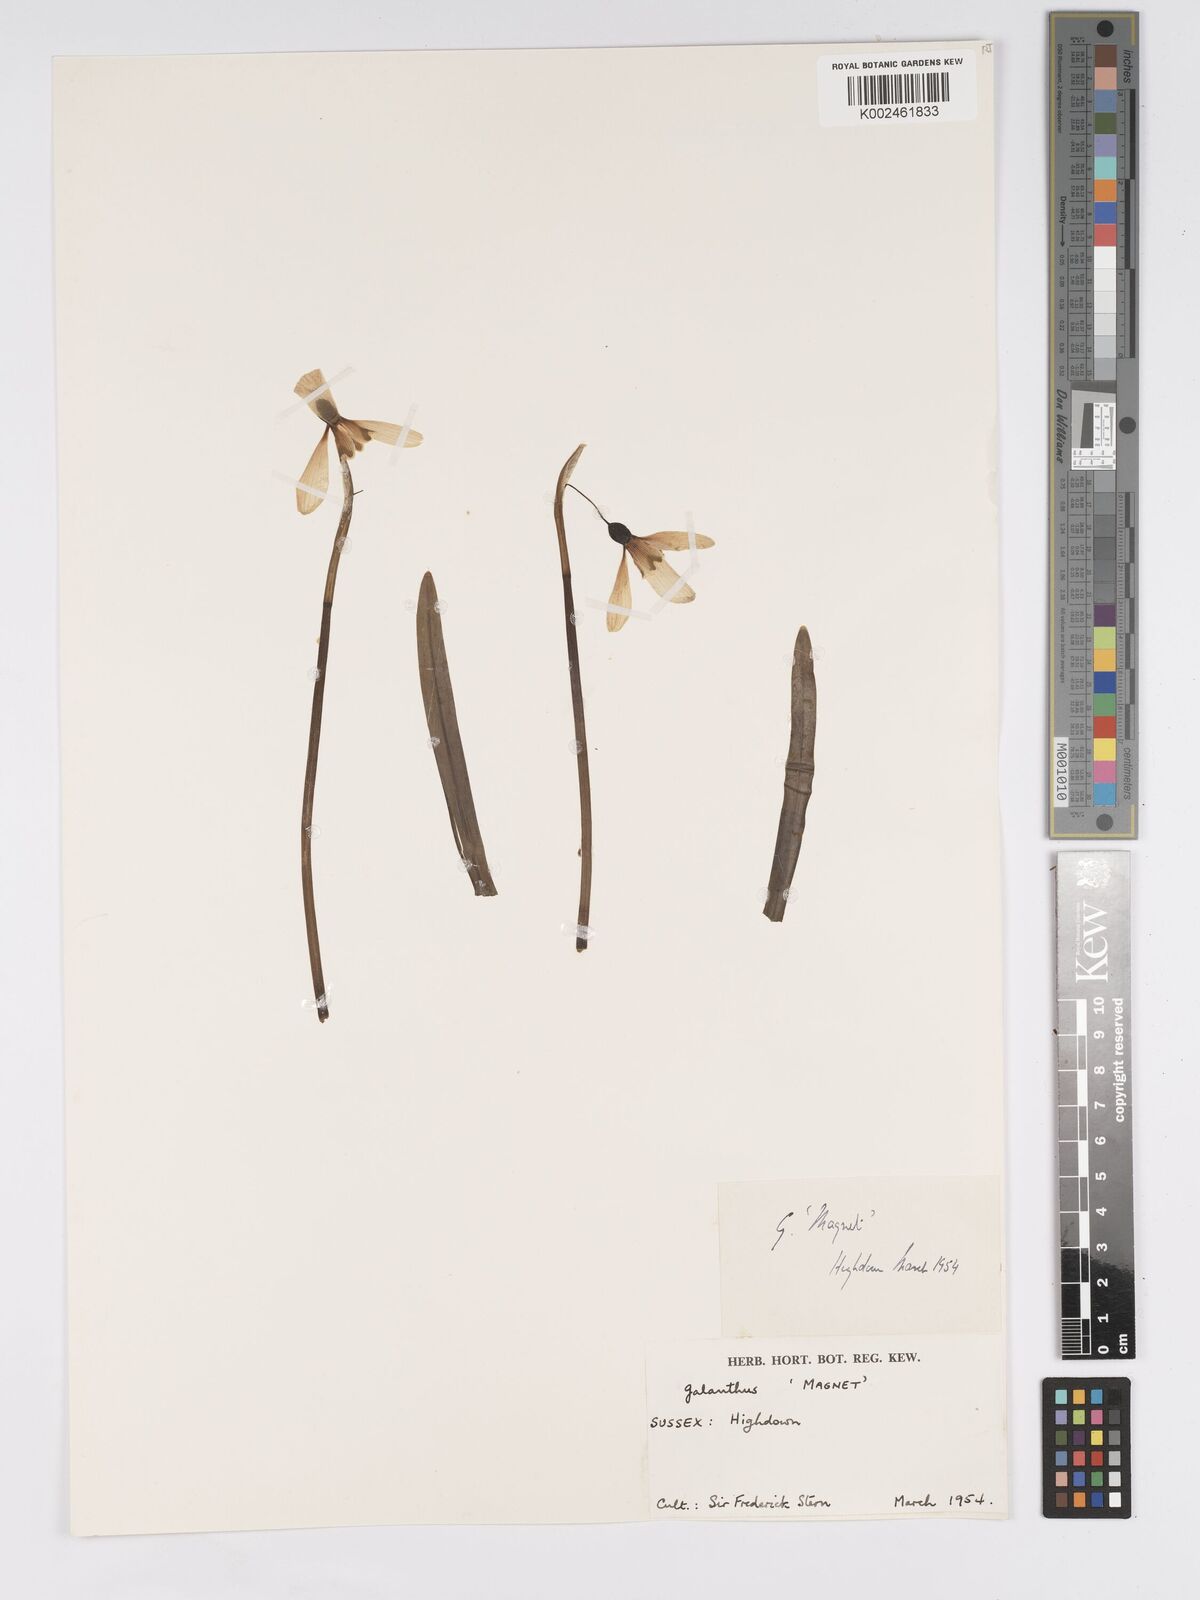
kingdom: Plantae
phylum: Tracheophyta
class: Liliopsida
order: Asparagales
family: Amaryllidaceae
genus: Galanthus
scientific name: Galanthus
